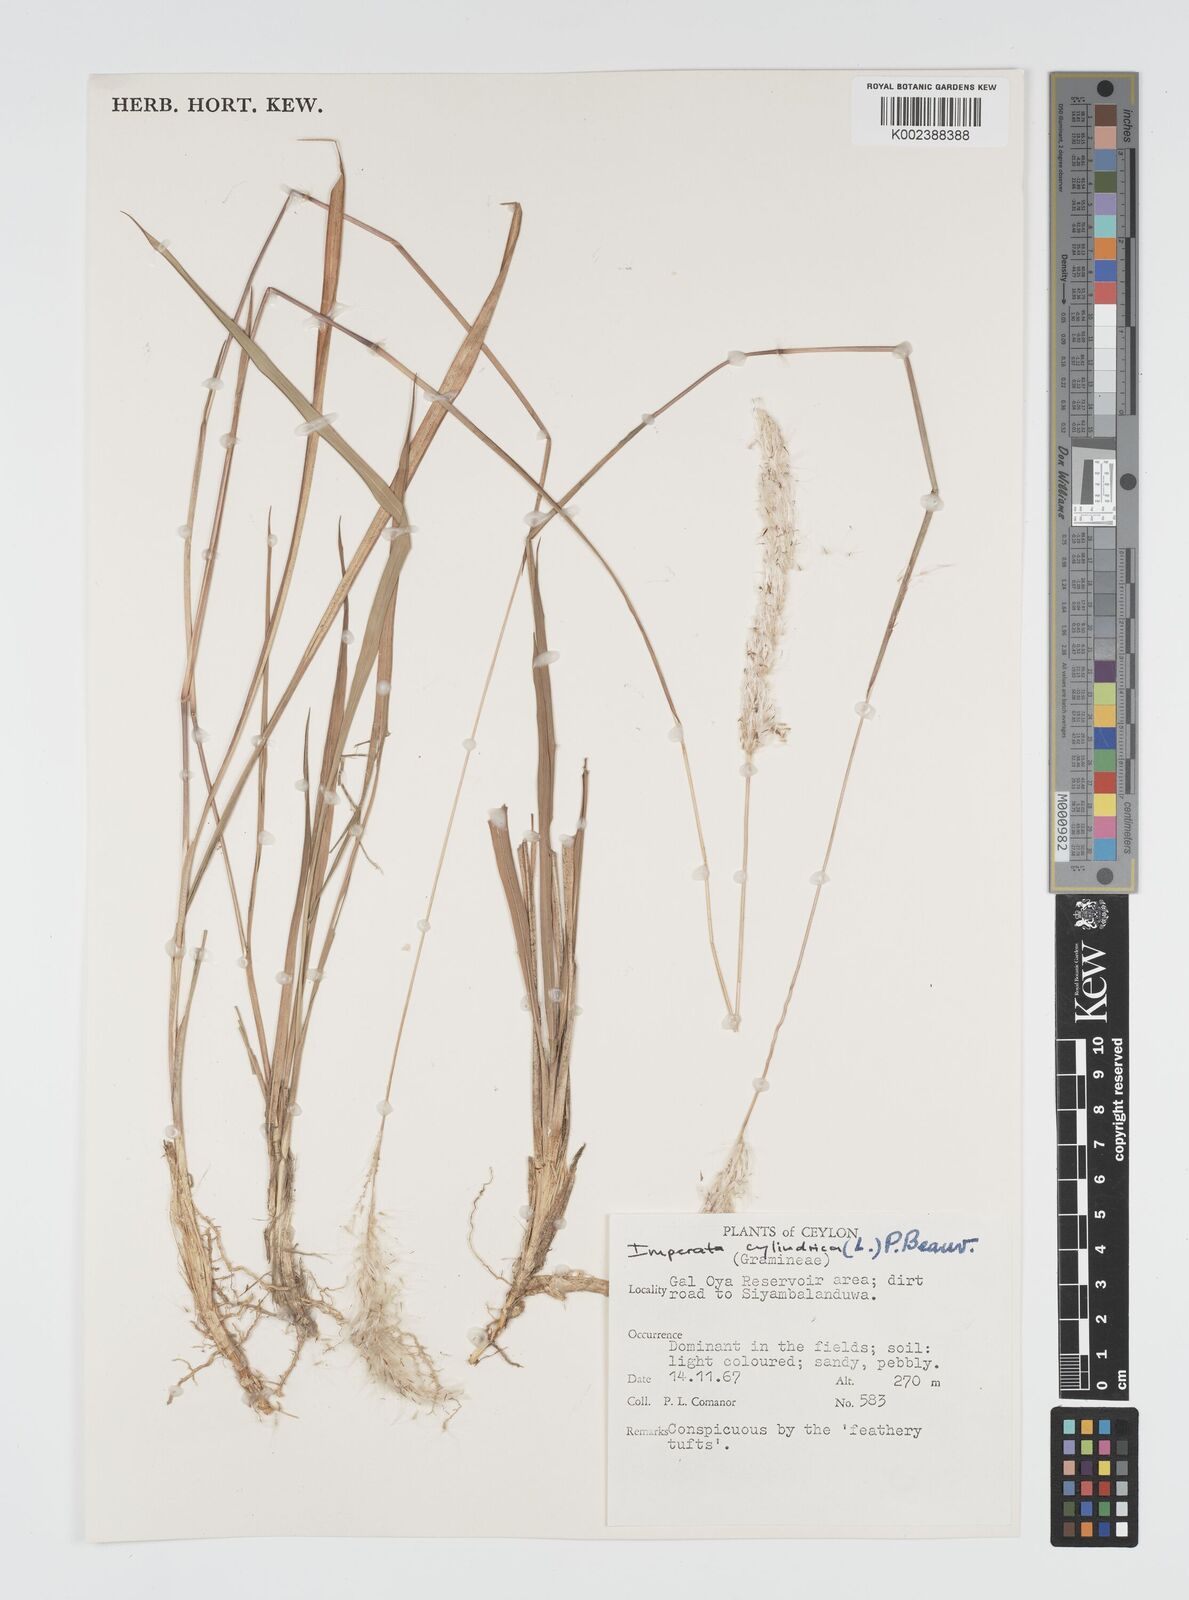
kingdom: Plantae
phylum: Tracheophyta
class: Liliopsida
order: Poales
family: Poaceae
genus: Imperata
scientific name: Imperata cylindrica
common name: Cogongrass
